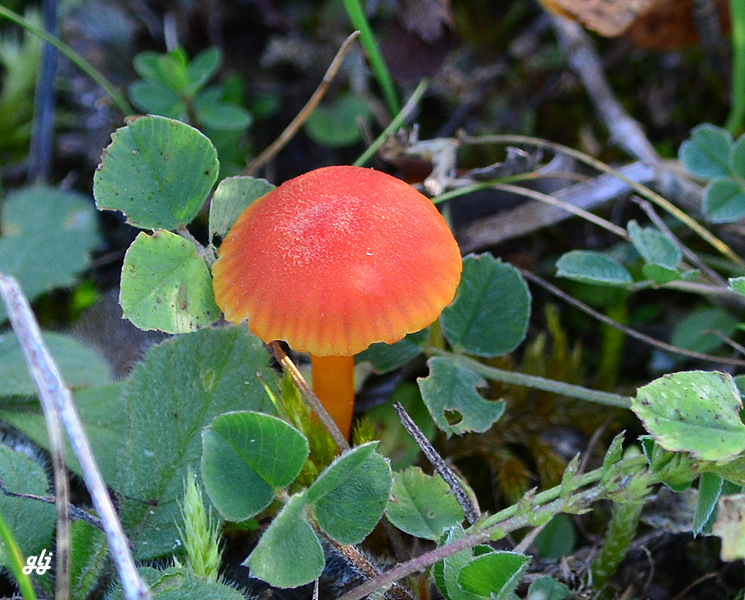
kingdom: Fungi
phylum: Basidiomycota
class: Agaricomycetes
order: Agaricales
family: Hygrophoraceae
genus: Hygrocybe
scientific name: Hygrocybe miniata
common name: mønje-vokshat
